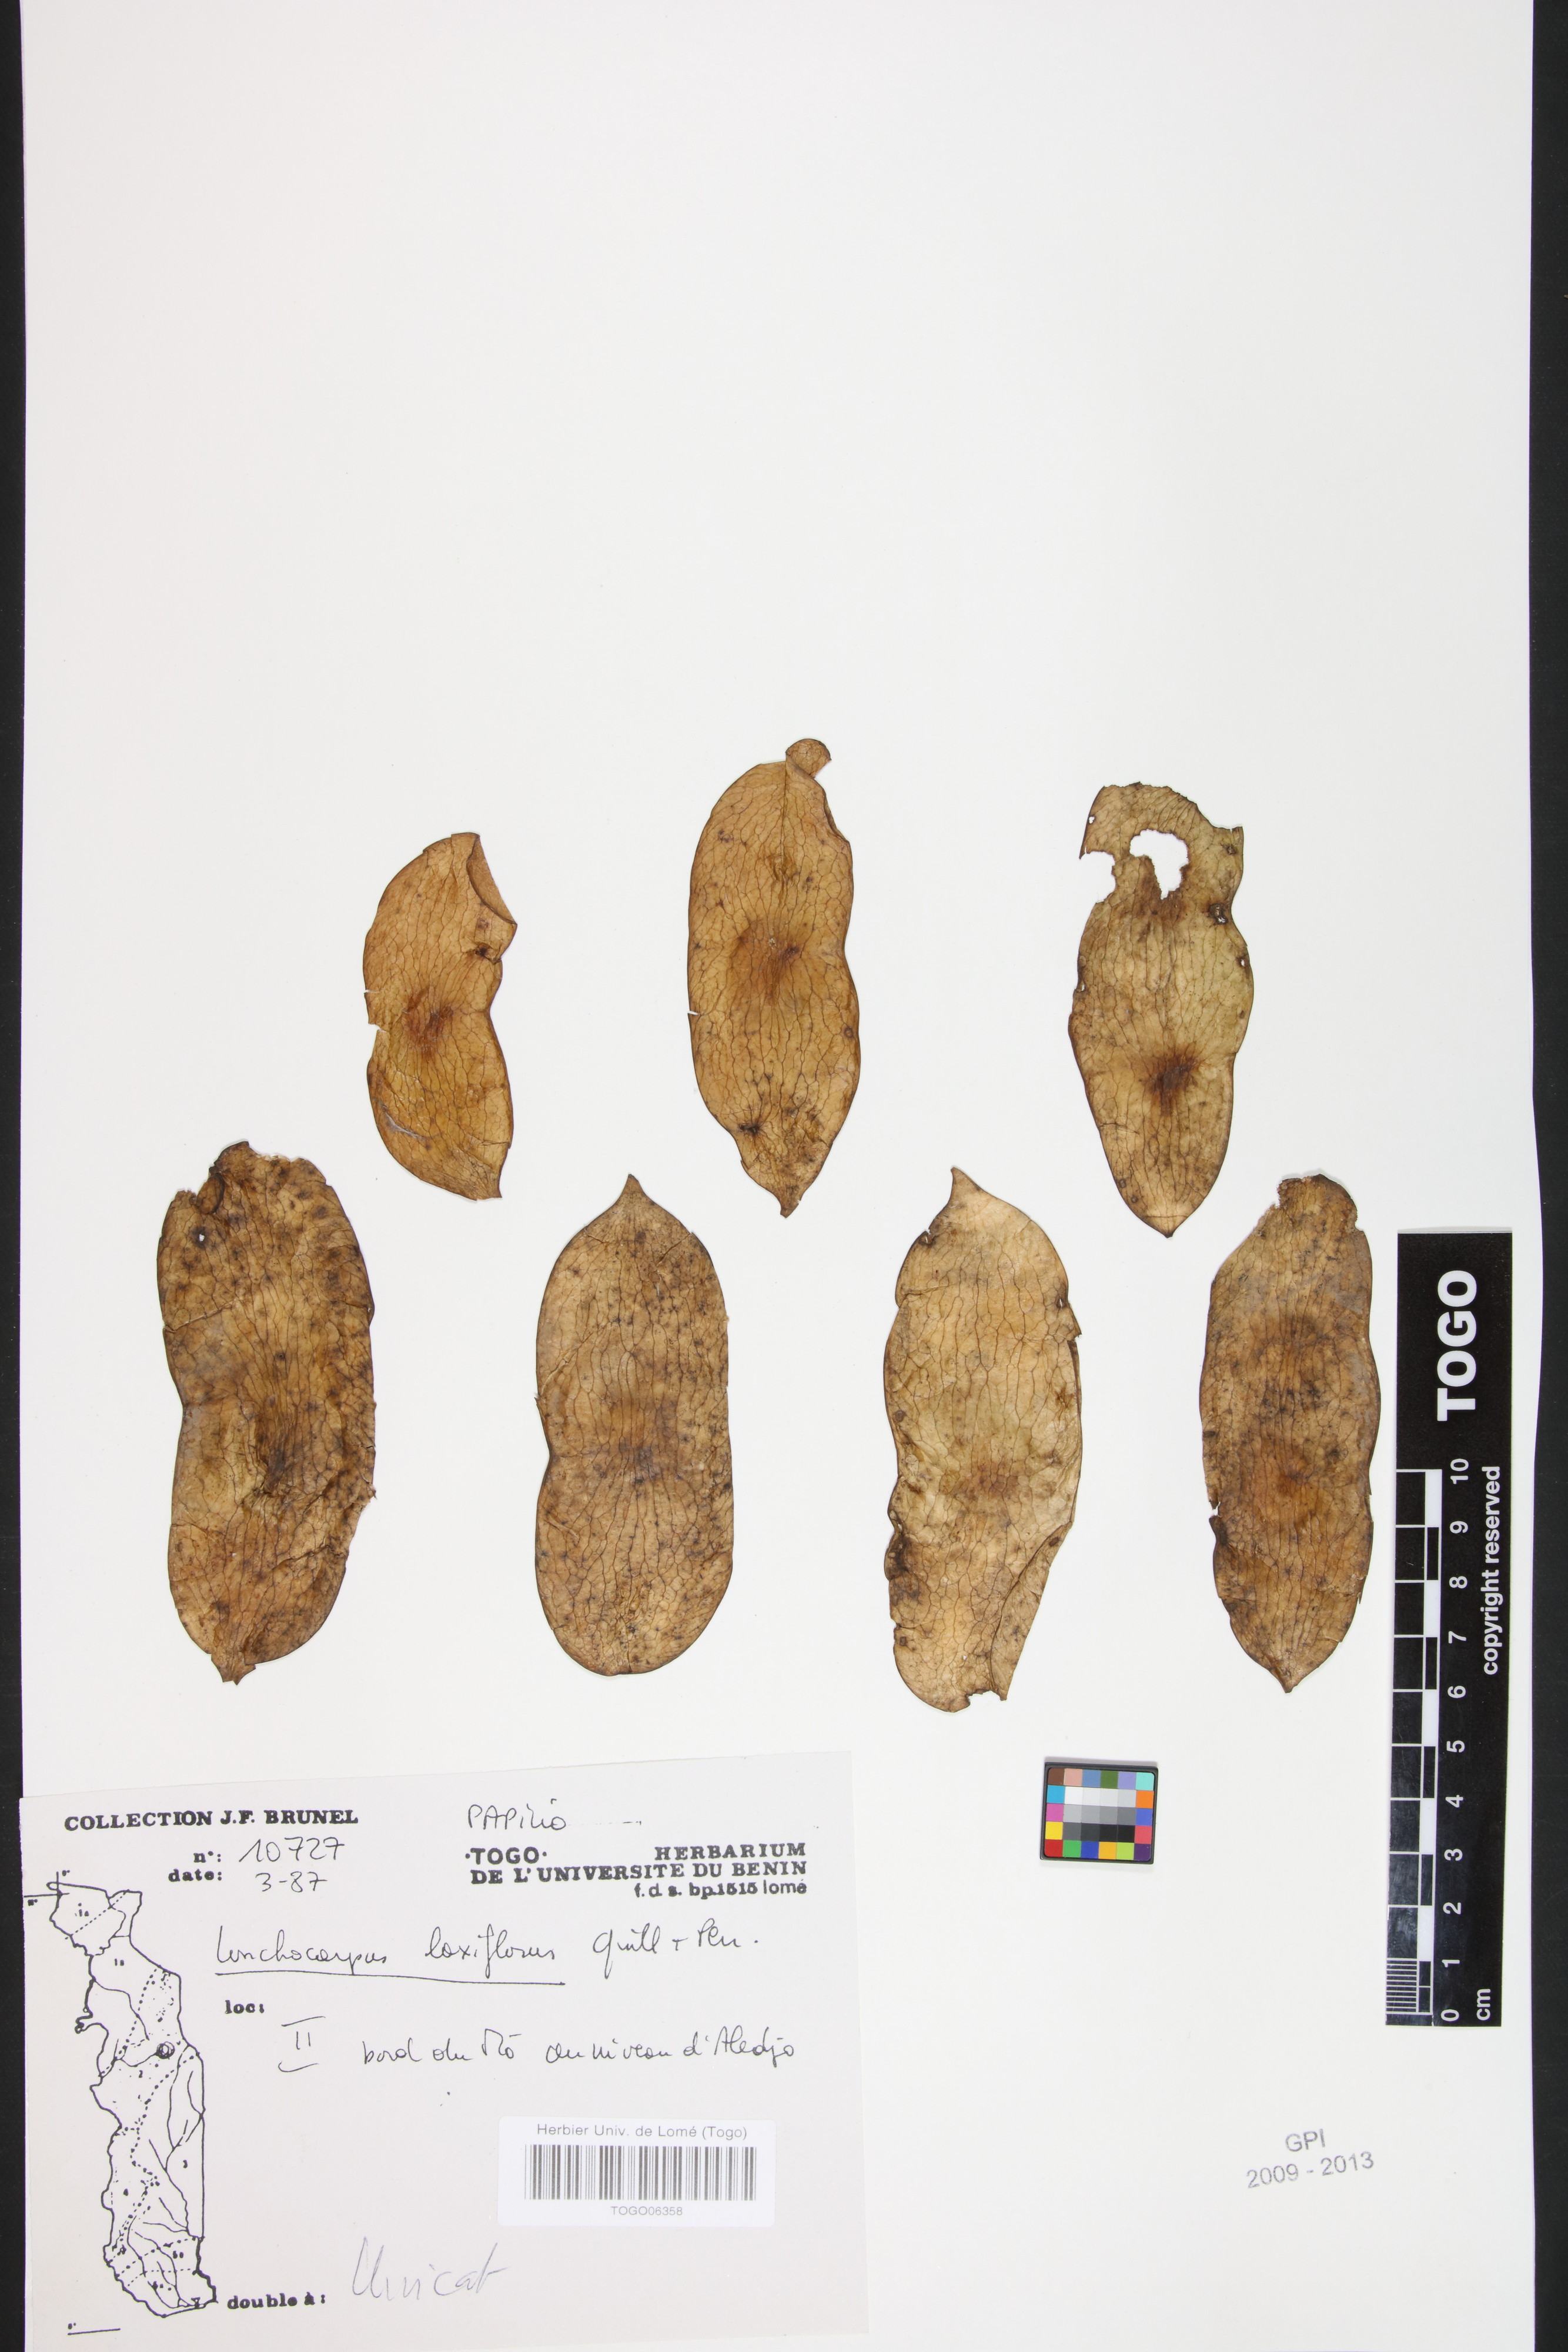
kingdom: Plantae
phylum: Tracheophyta
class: Magnoliopsida
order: Fabales
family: Fabaceae
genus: Philenoptera
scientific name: Philenoptera laxiflora
